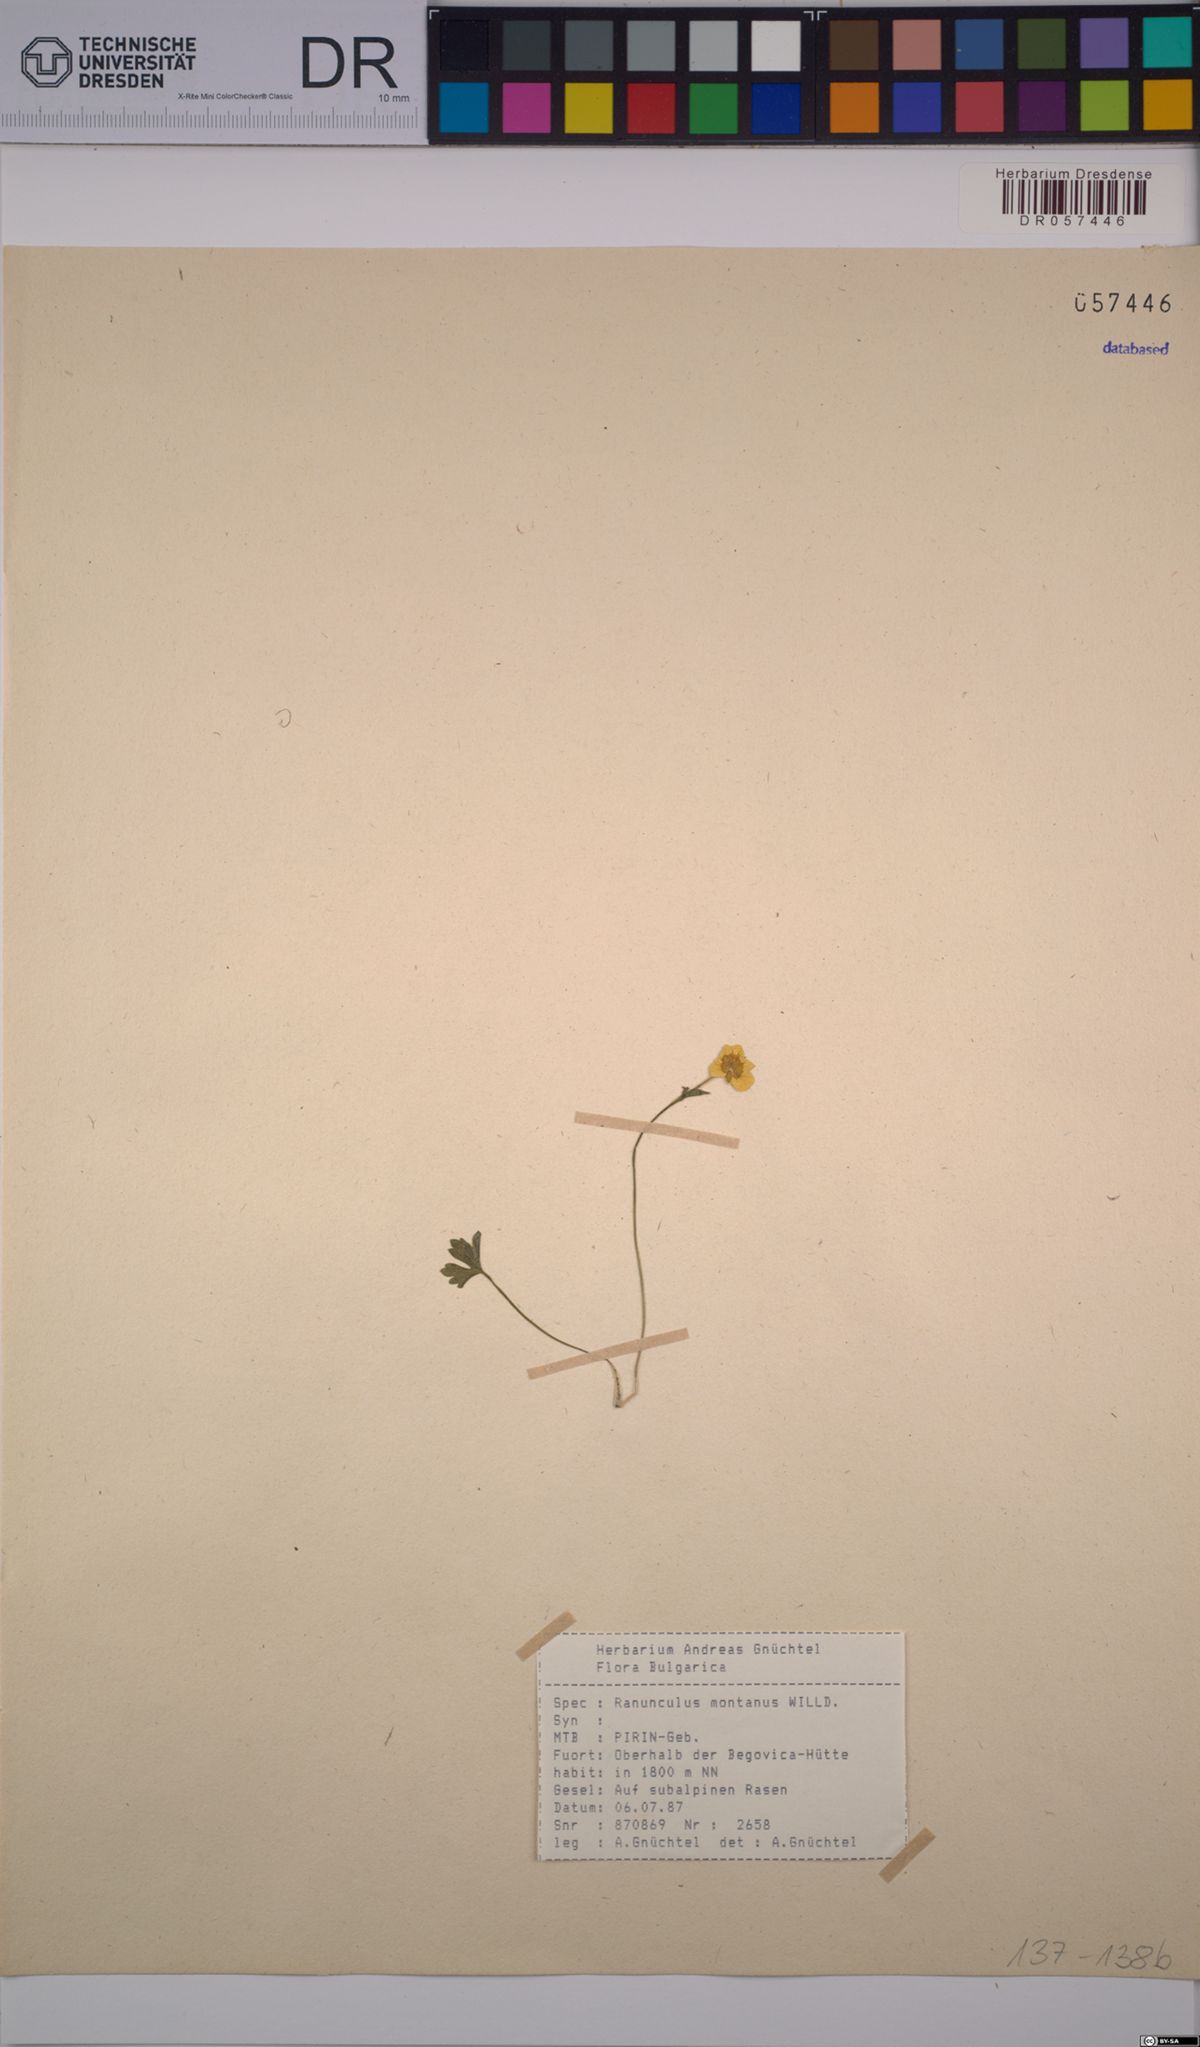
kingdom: Plantae
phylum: Tracheophyta
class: Magnoliopsida
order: Ranunculales
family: Ranunculaceae
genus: Ranunculus
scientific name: Ranunculus montanus
